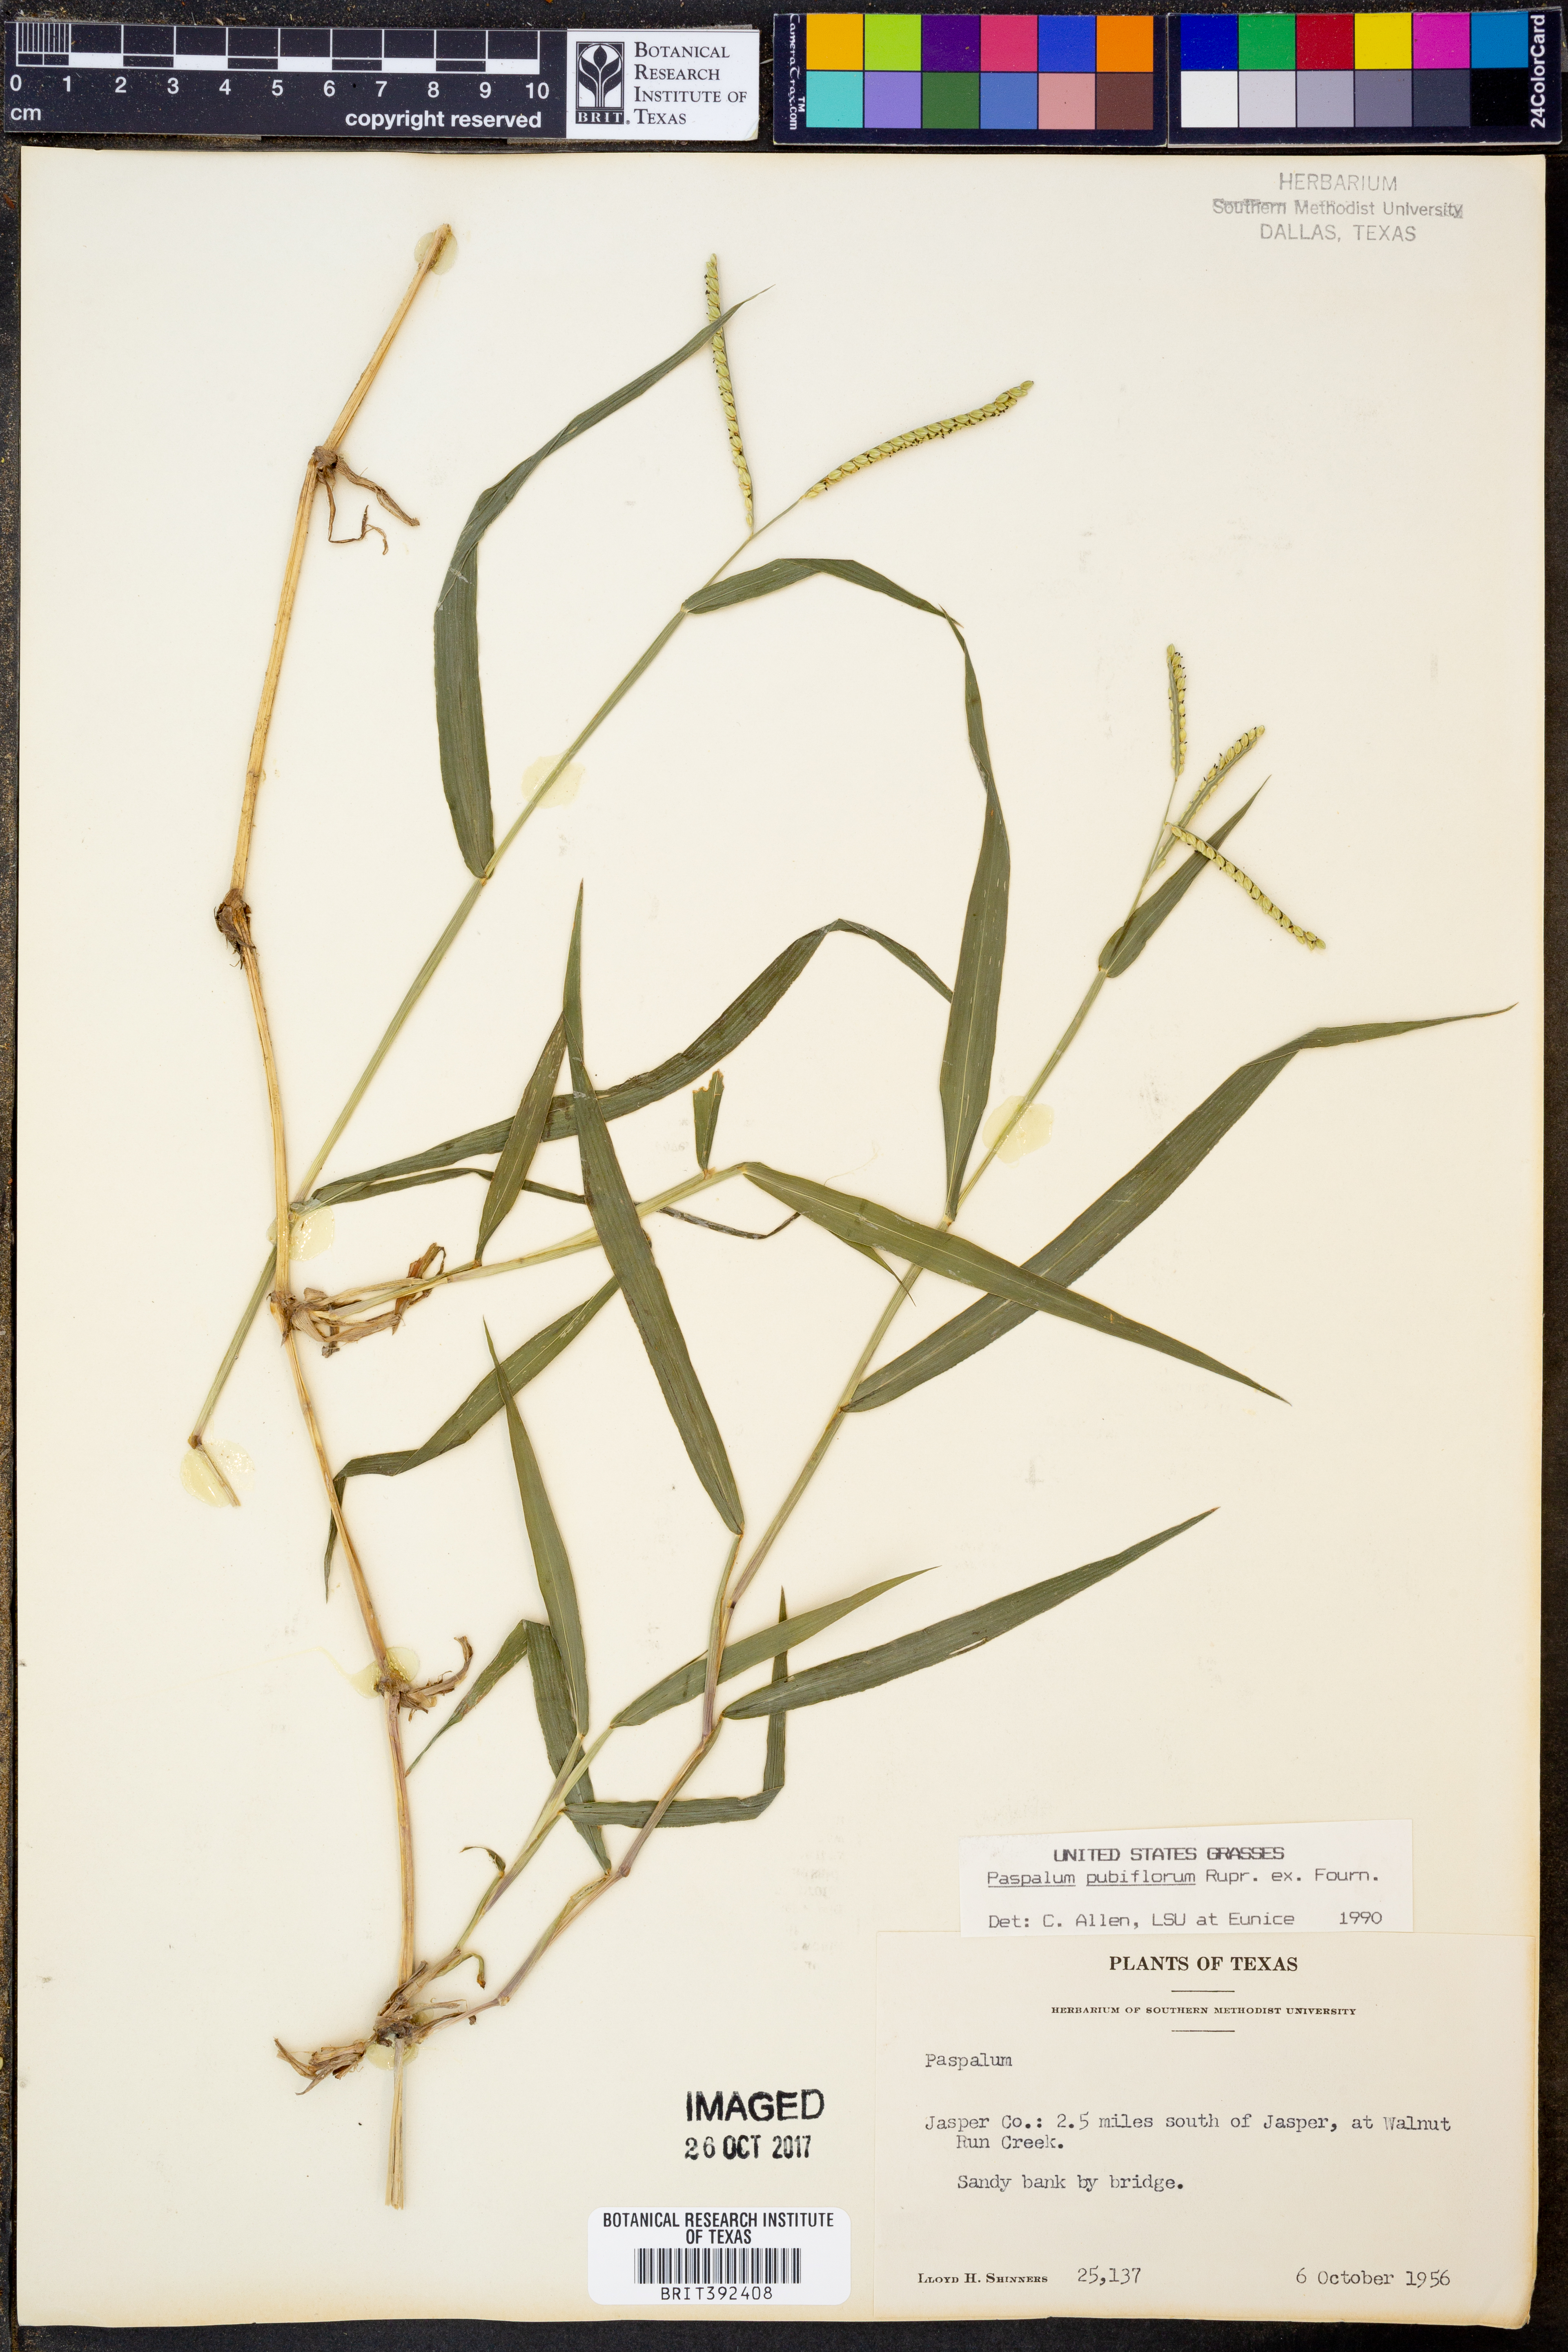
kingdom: Plantae
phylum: Tracheophyta
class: Liliopsida
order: Poales
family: Poaceae
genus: Paspalum
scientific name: Paspalum pubiflorum
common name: Hairy-seed paspalum
